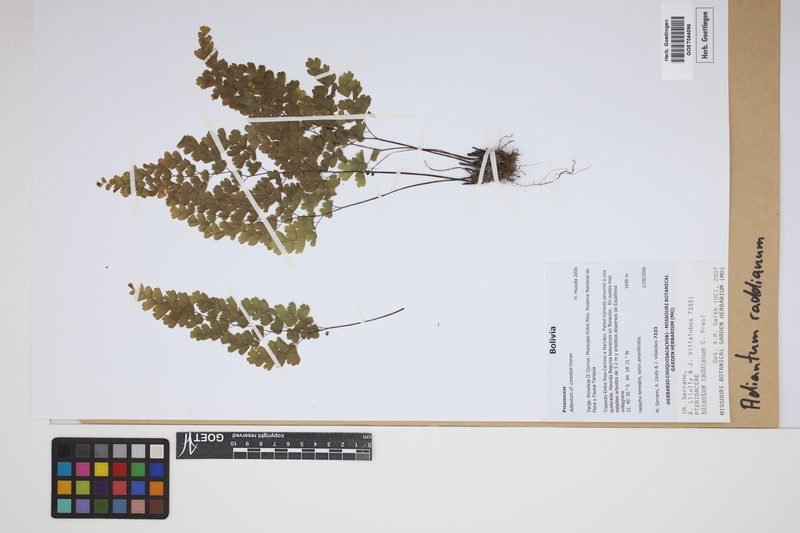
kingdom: Plantae
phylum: Tracheophyta
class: Polypodiopsida
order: Polypodiales
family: Pteridaceae
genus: Adiantum
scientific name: Adiantum raddianum
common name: Delta maidenhair fern
